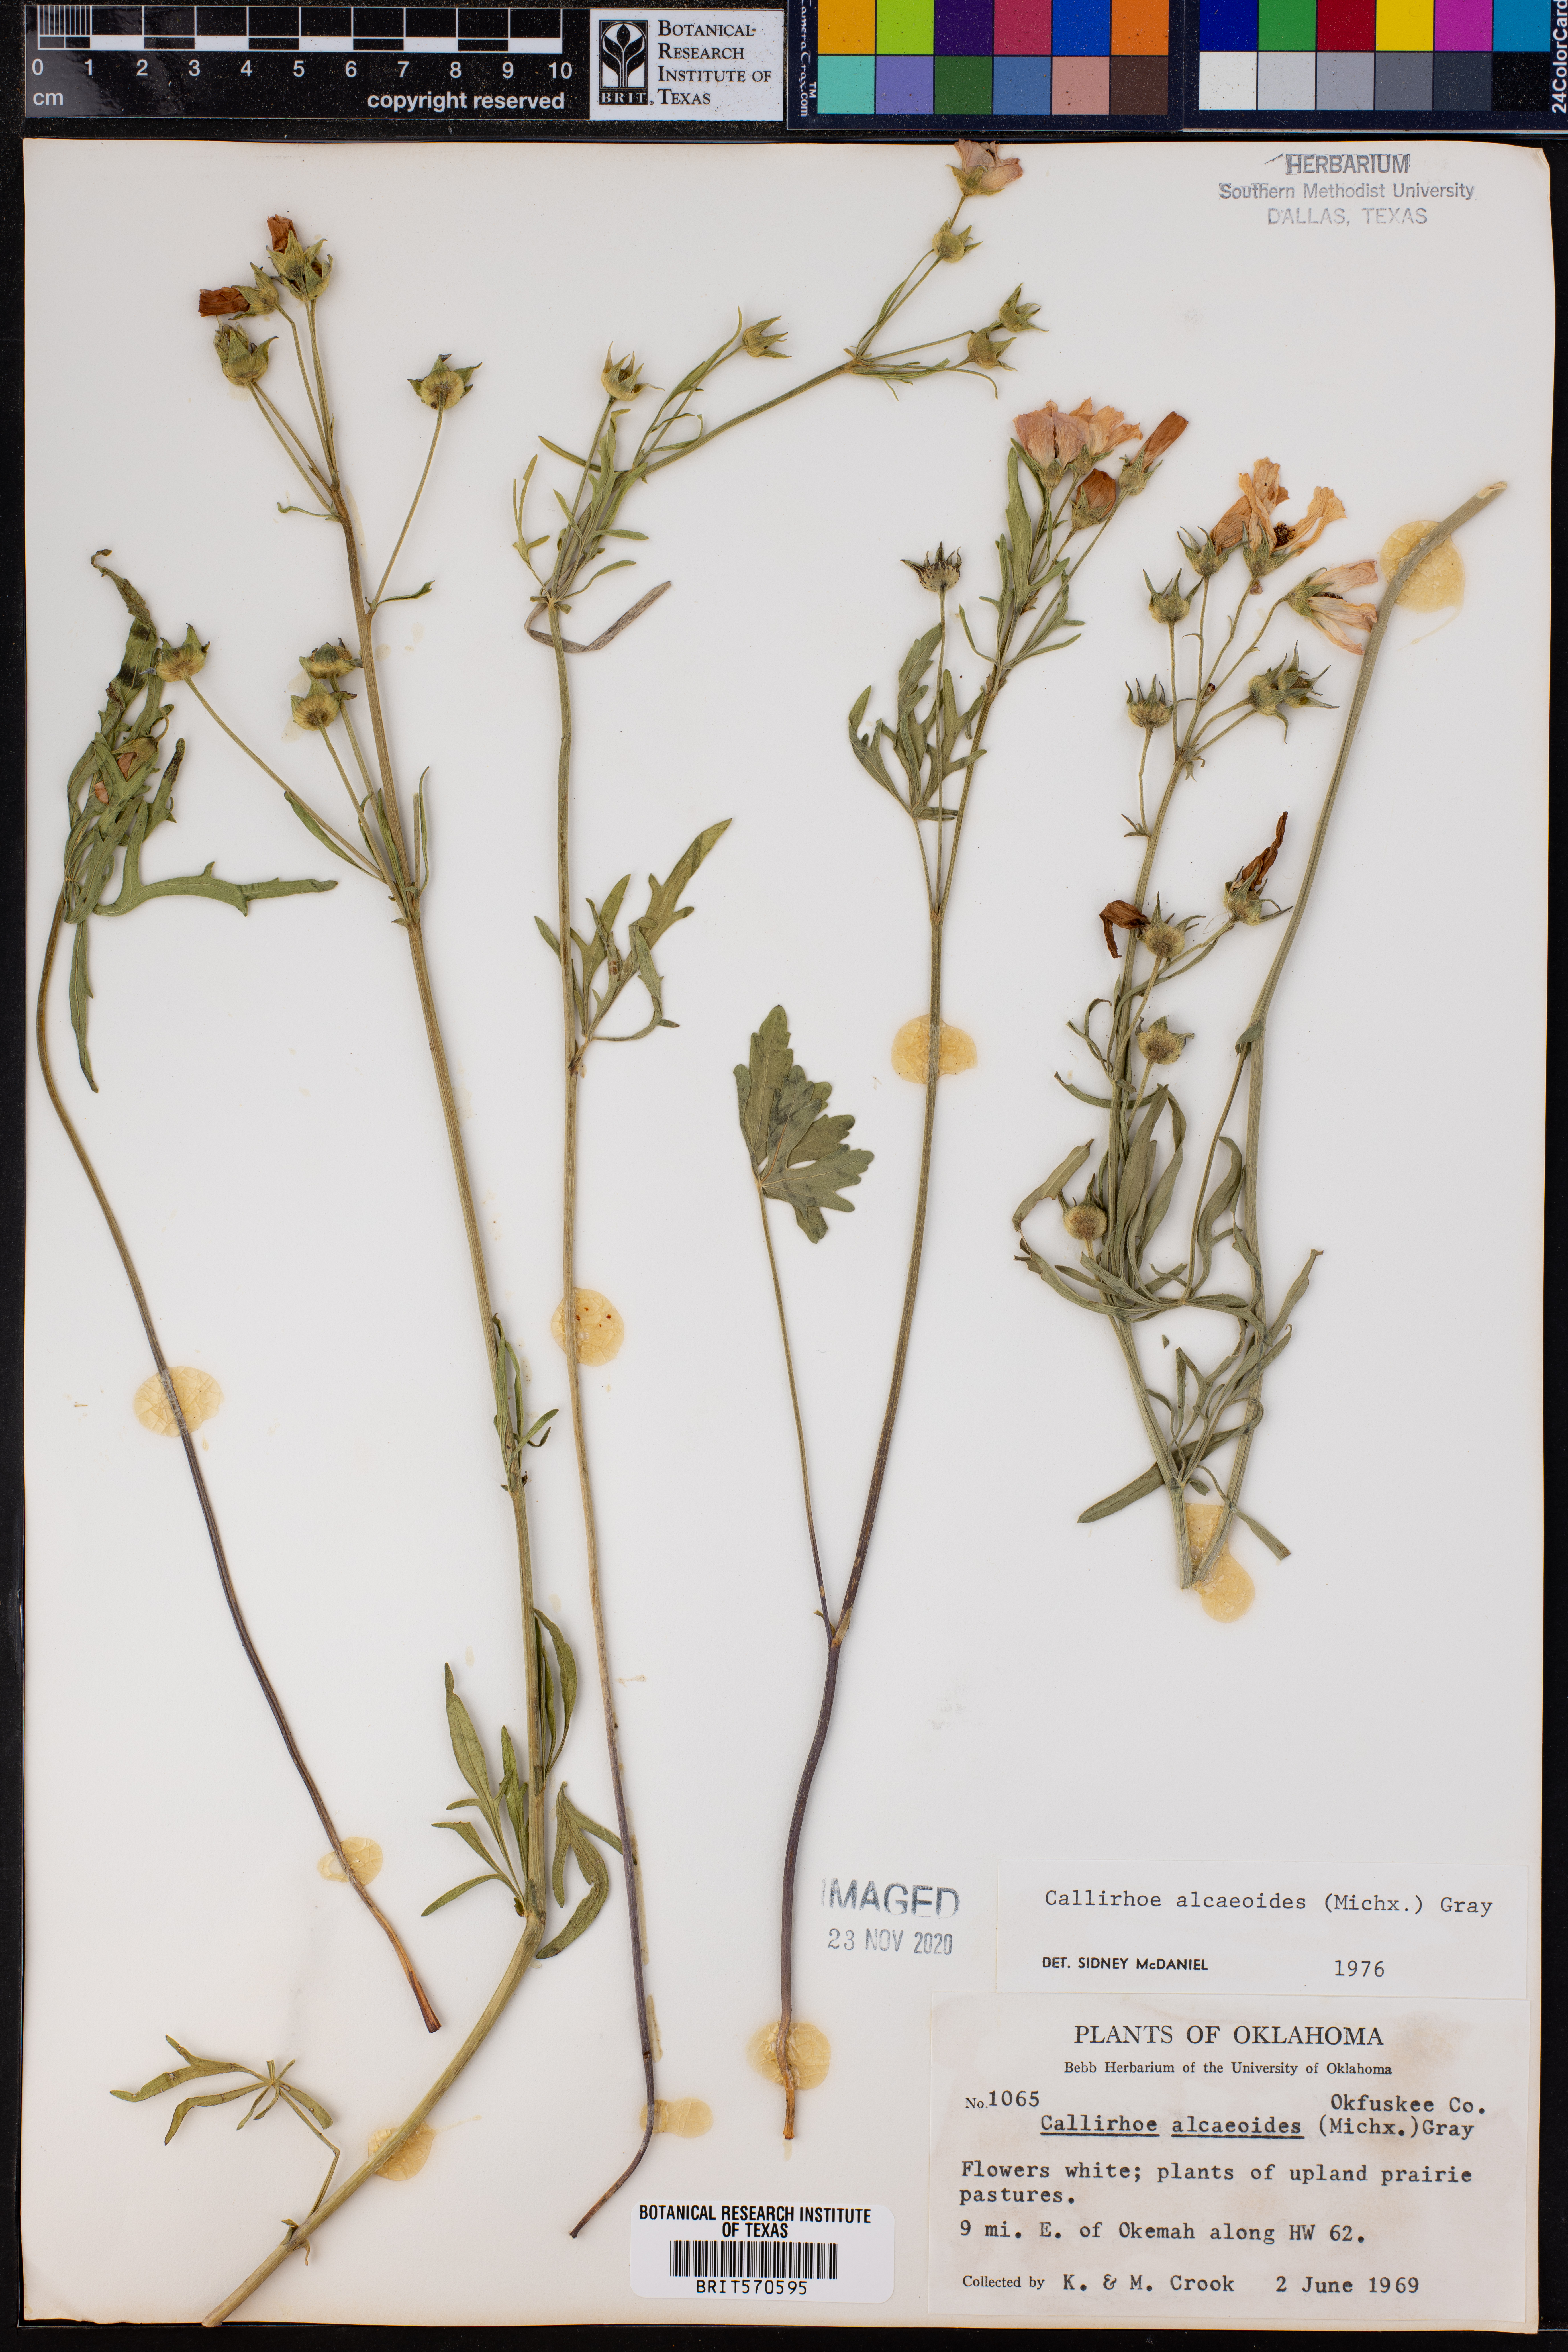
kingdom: Plantae
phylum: Tracheophyta
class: Magnoliopsida
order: Malvales
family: Malvaceae
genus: Callirhoe
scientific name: Callirhoe alcaeoides
